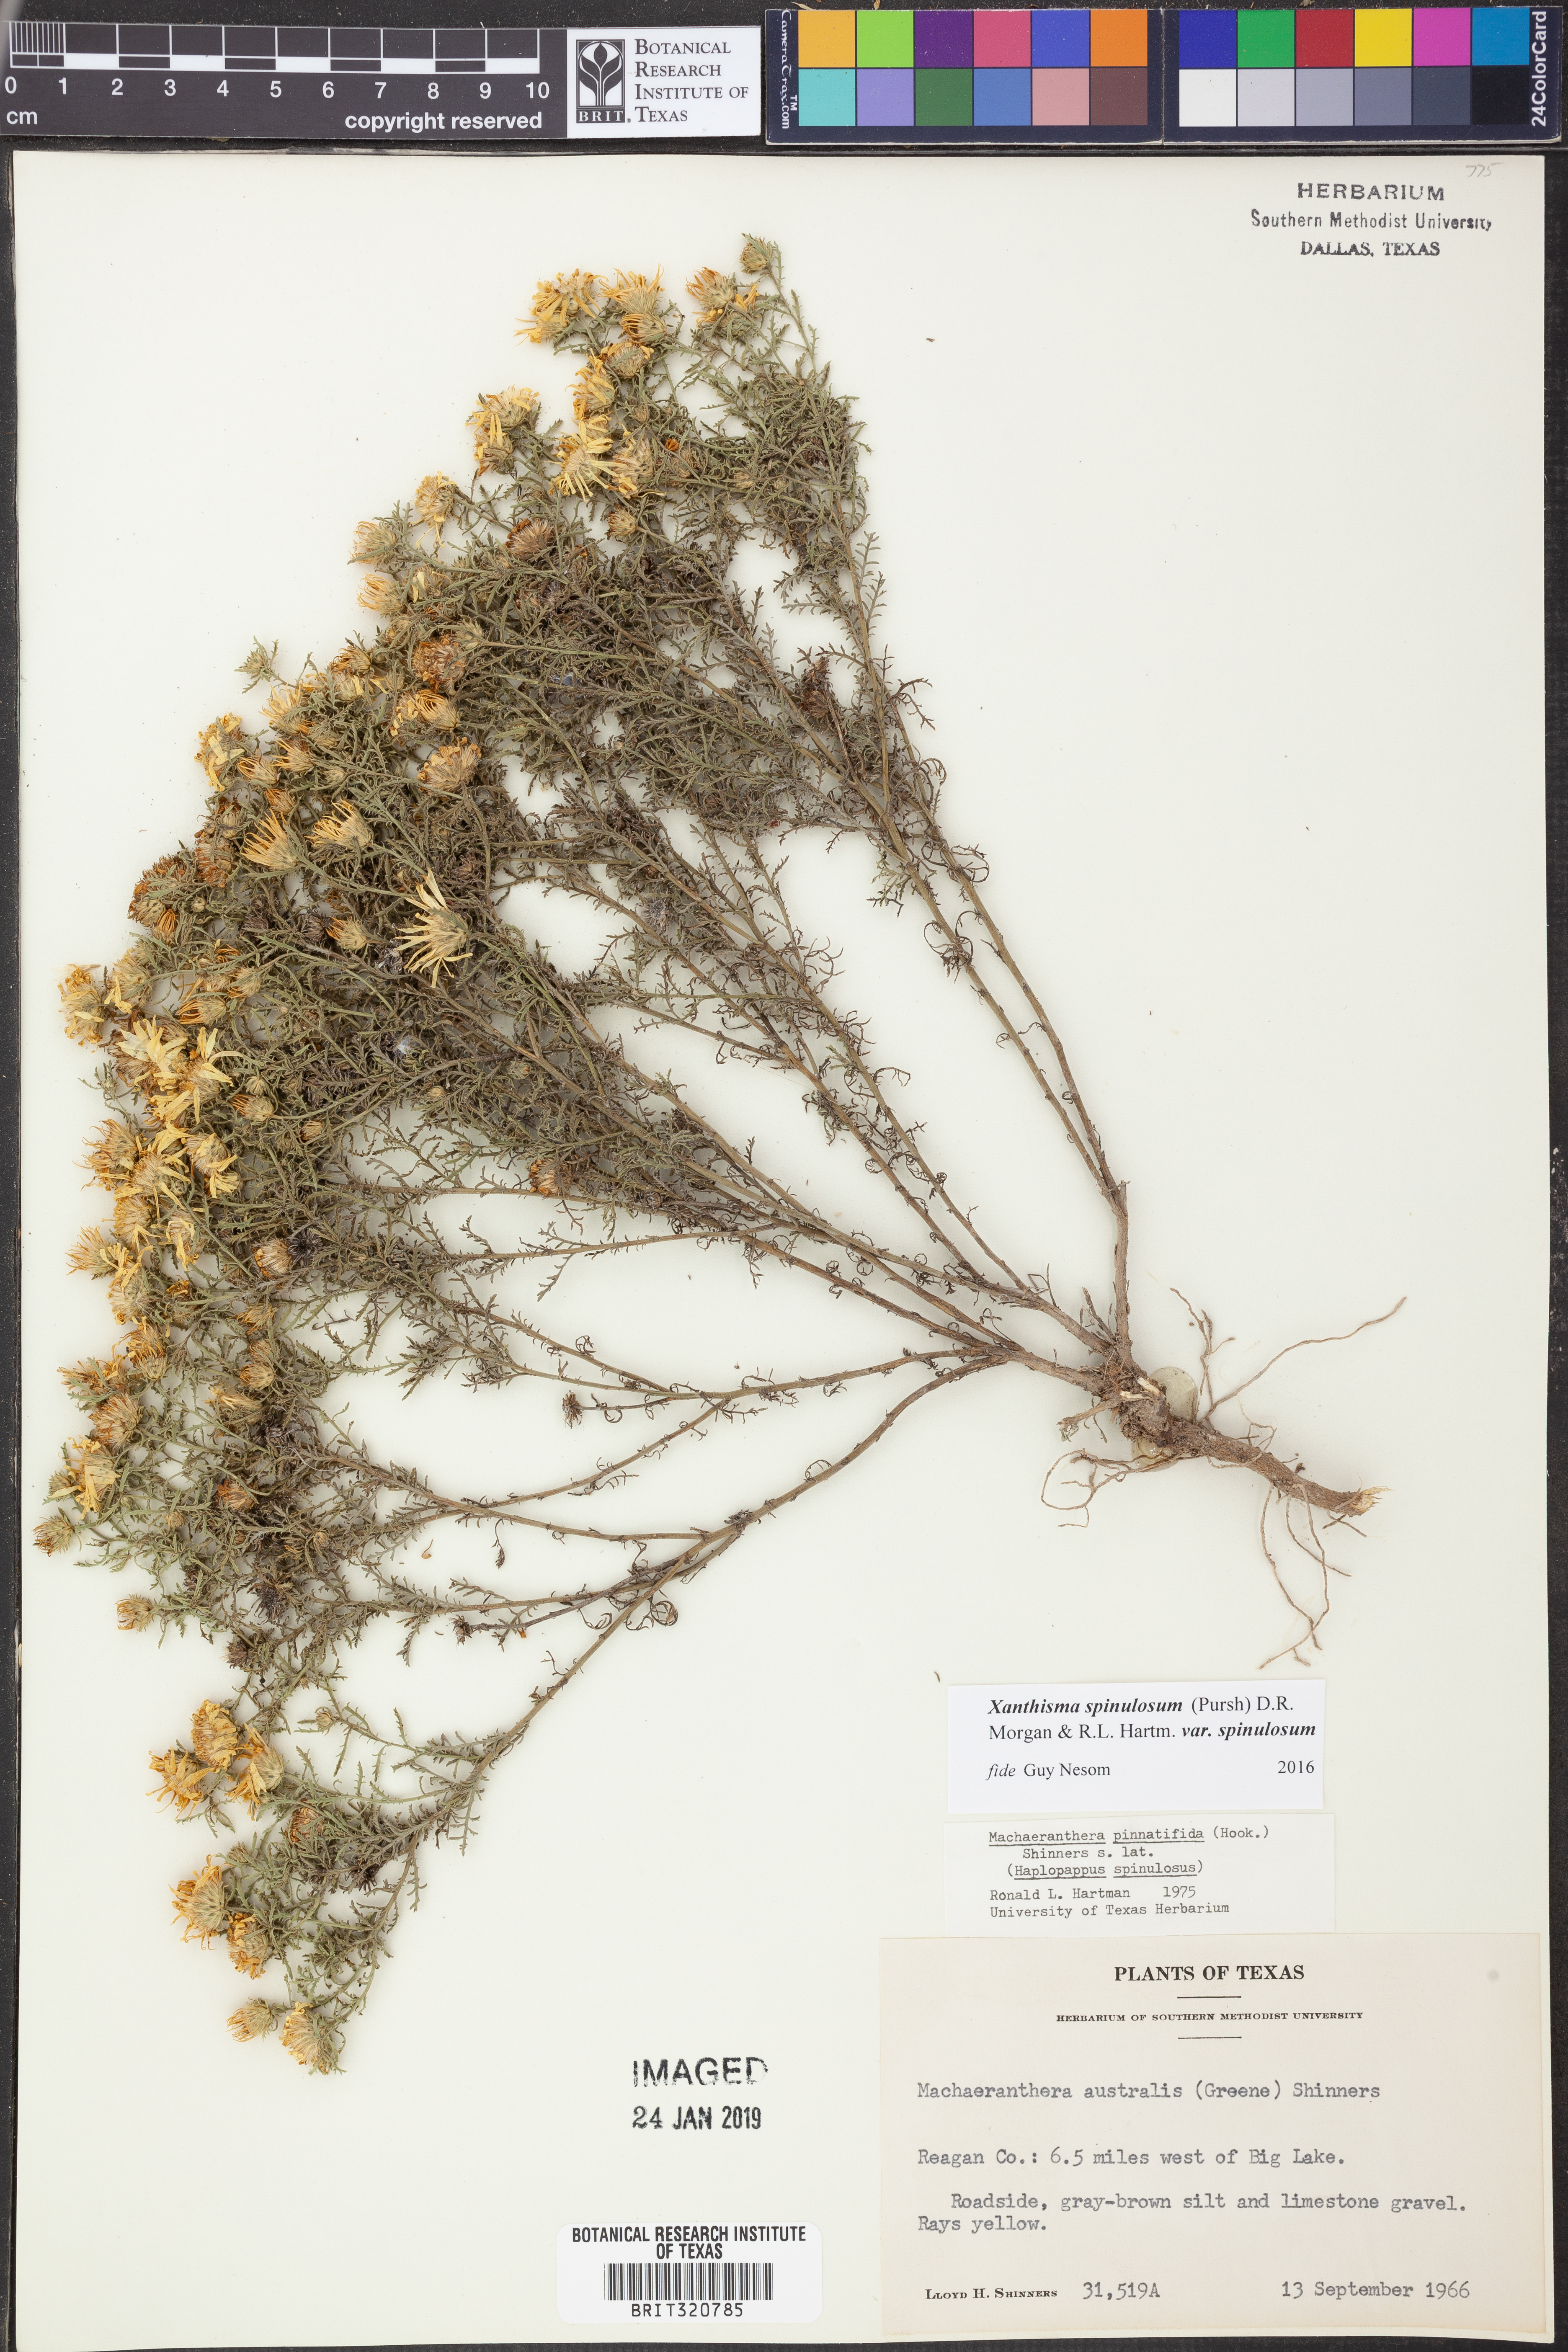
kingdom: Plantae
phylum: Tracheophyta
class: Magnoliopsida
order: Asterales
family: Asteraceae
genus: Xanthisma
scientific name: Xanthisma spinulosum
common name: Spiny goldenweed
